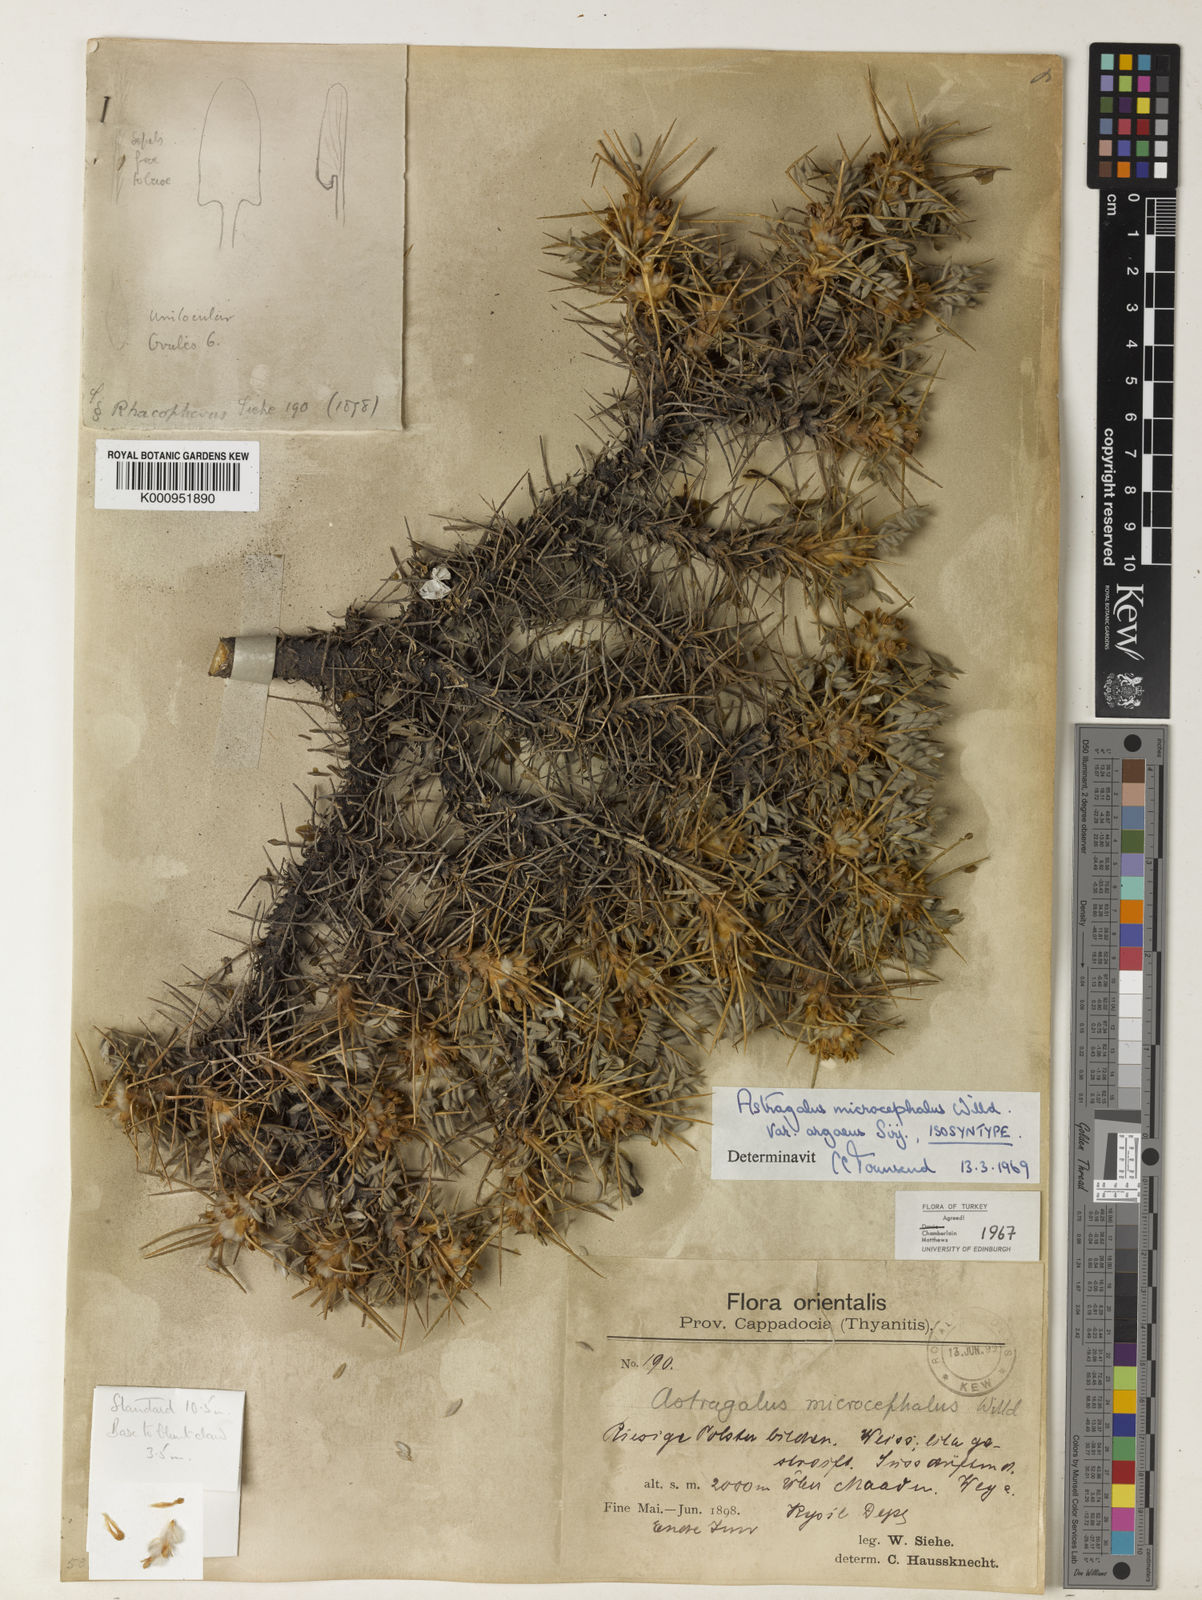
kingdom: Plantae
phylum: Tracheophyta
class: Magnoliopsida
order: Fabales
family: Fabaceae
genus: Astragalus
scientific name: Astragalus microcephalus
